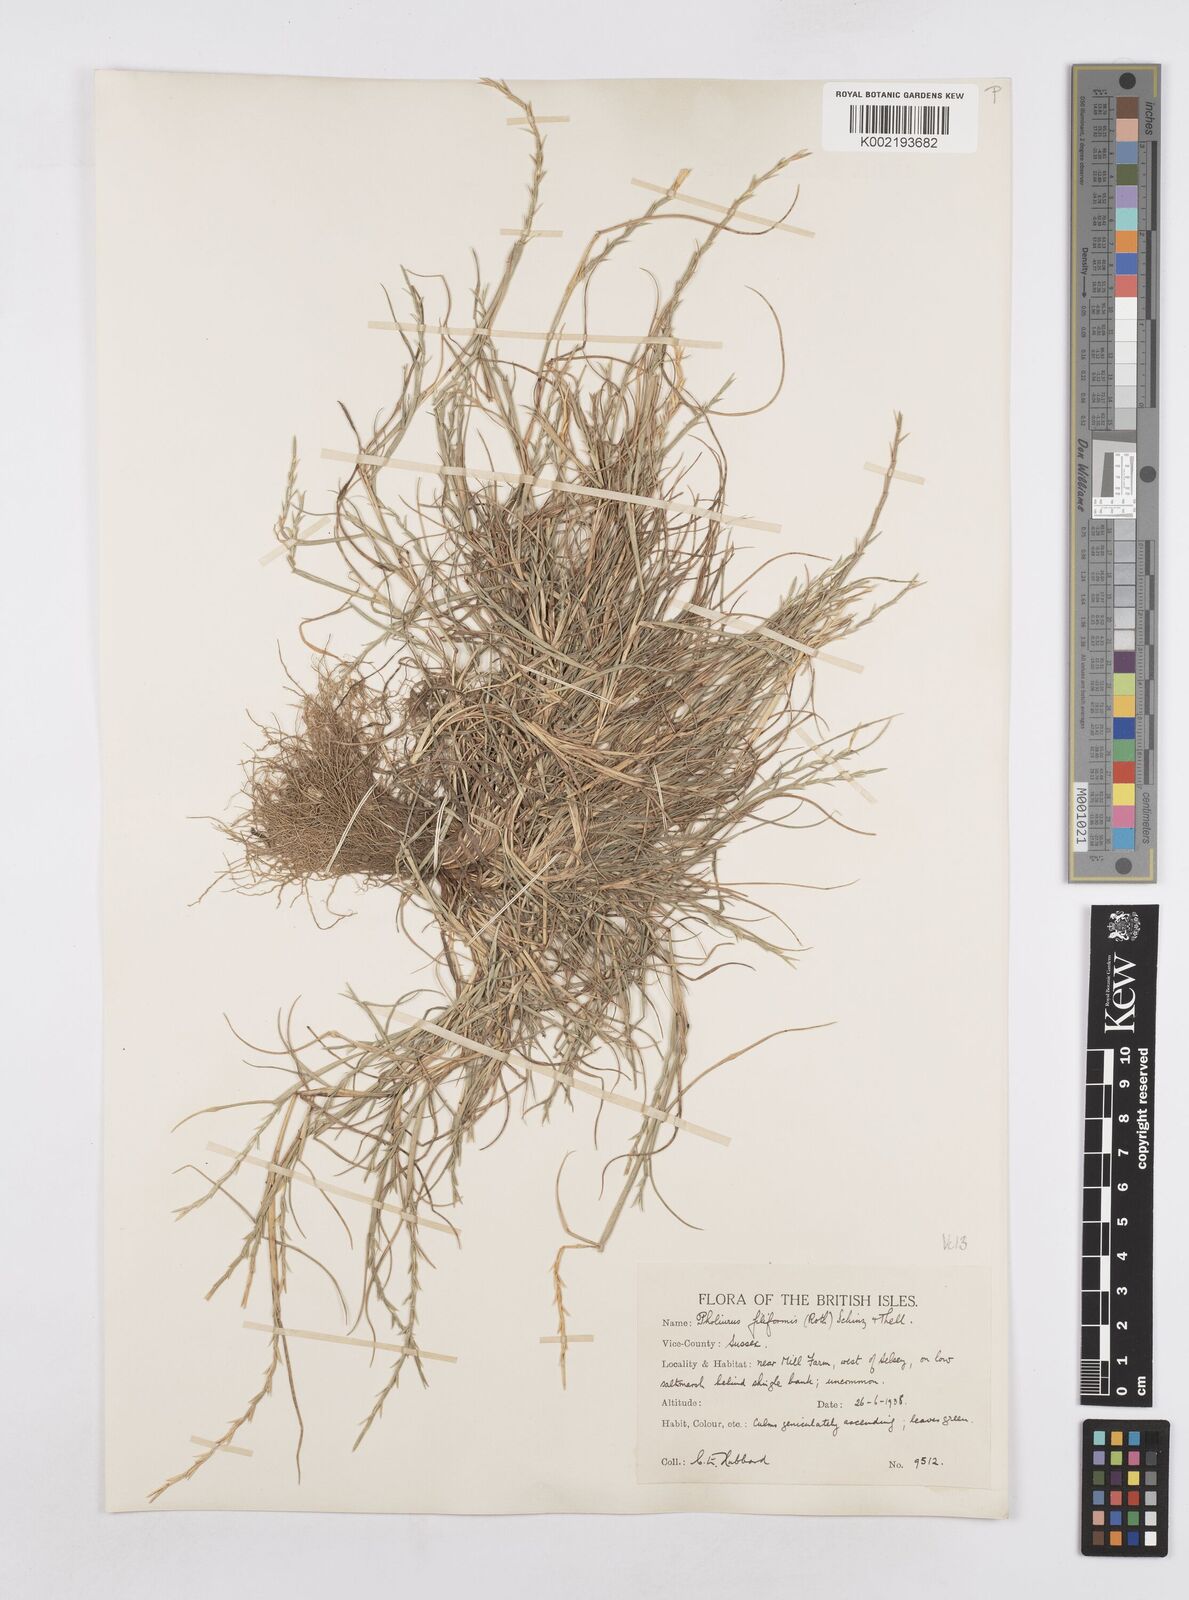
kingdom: Plantae
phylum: Tracheophyta
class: Liliopsida
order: Poales
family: Poaceae
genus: Parapholis
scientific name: Parapholis strigosa
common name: Hard-grass
